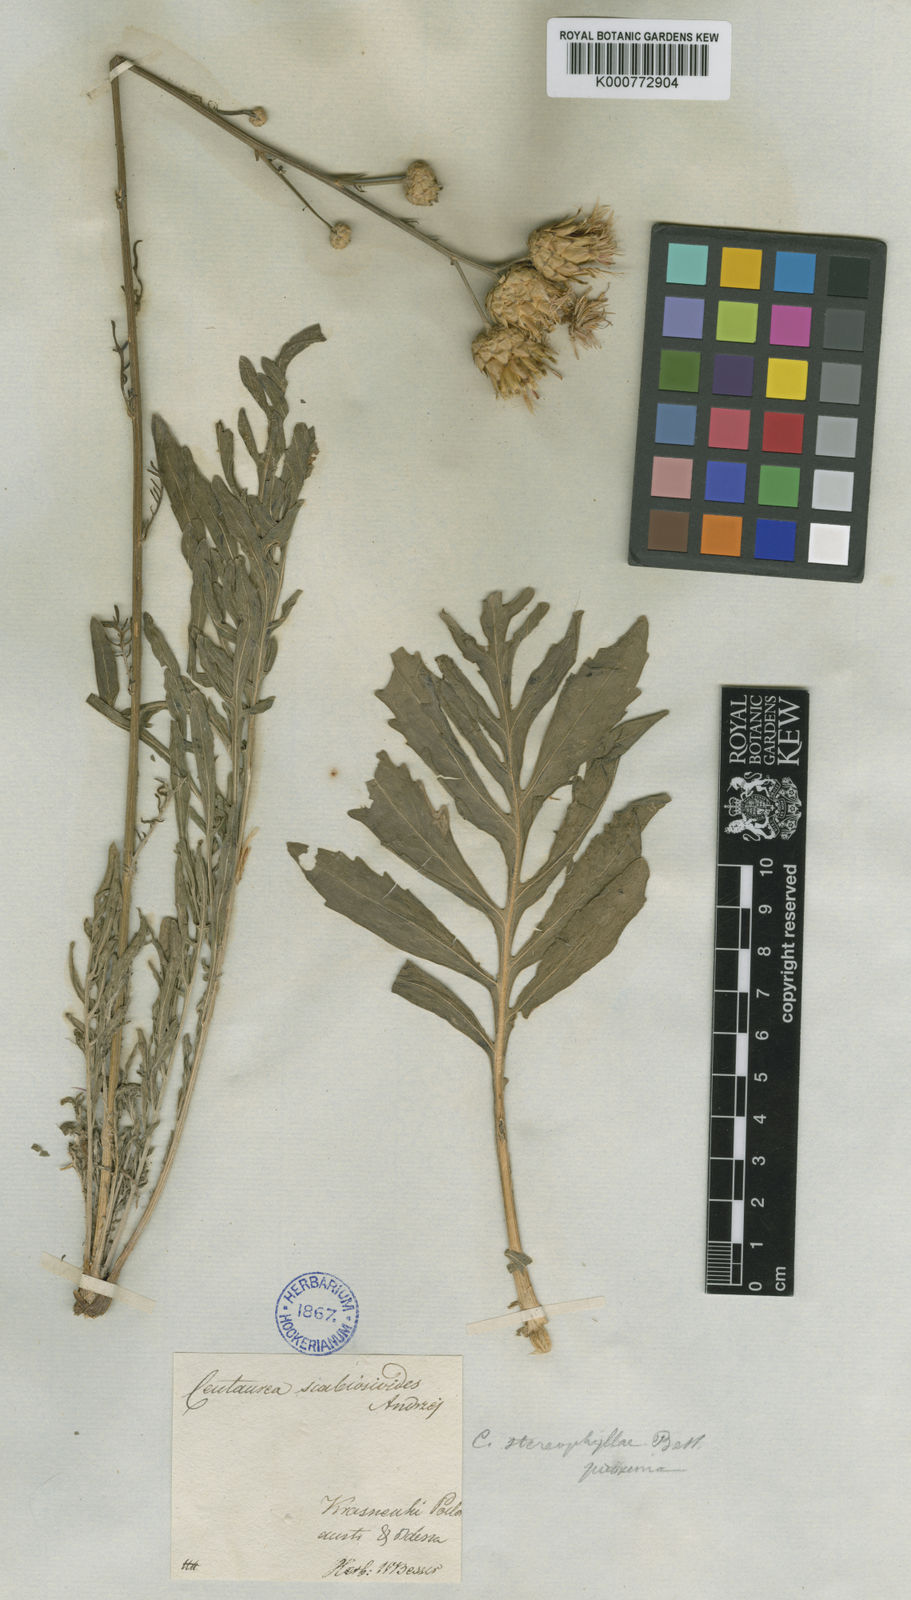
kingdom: Plantae
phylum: Tracheophyta
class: Magnoliopsida
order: Asterales
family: Asteraceae
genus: Centaurea
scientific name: Centaurea stereophylla
